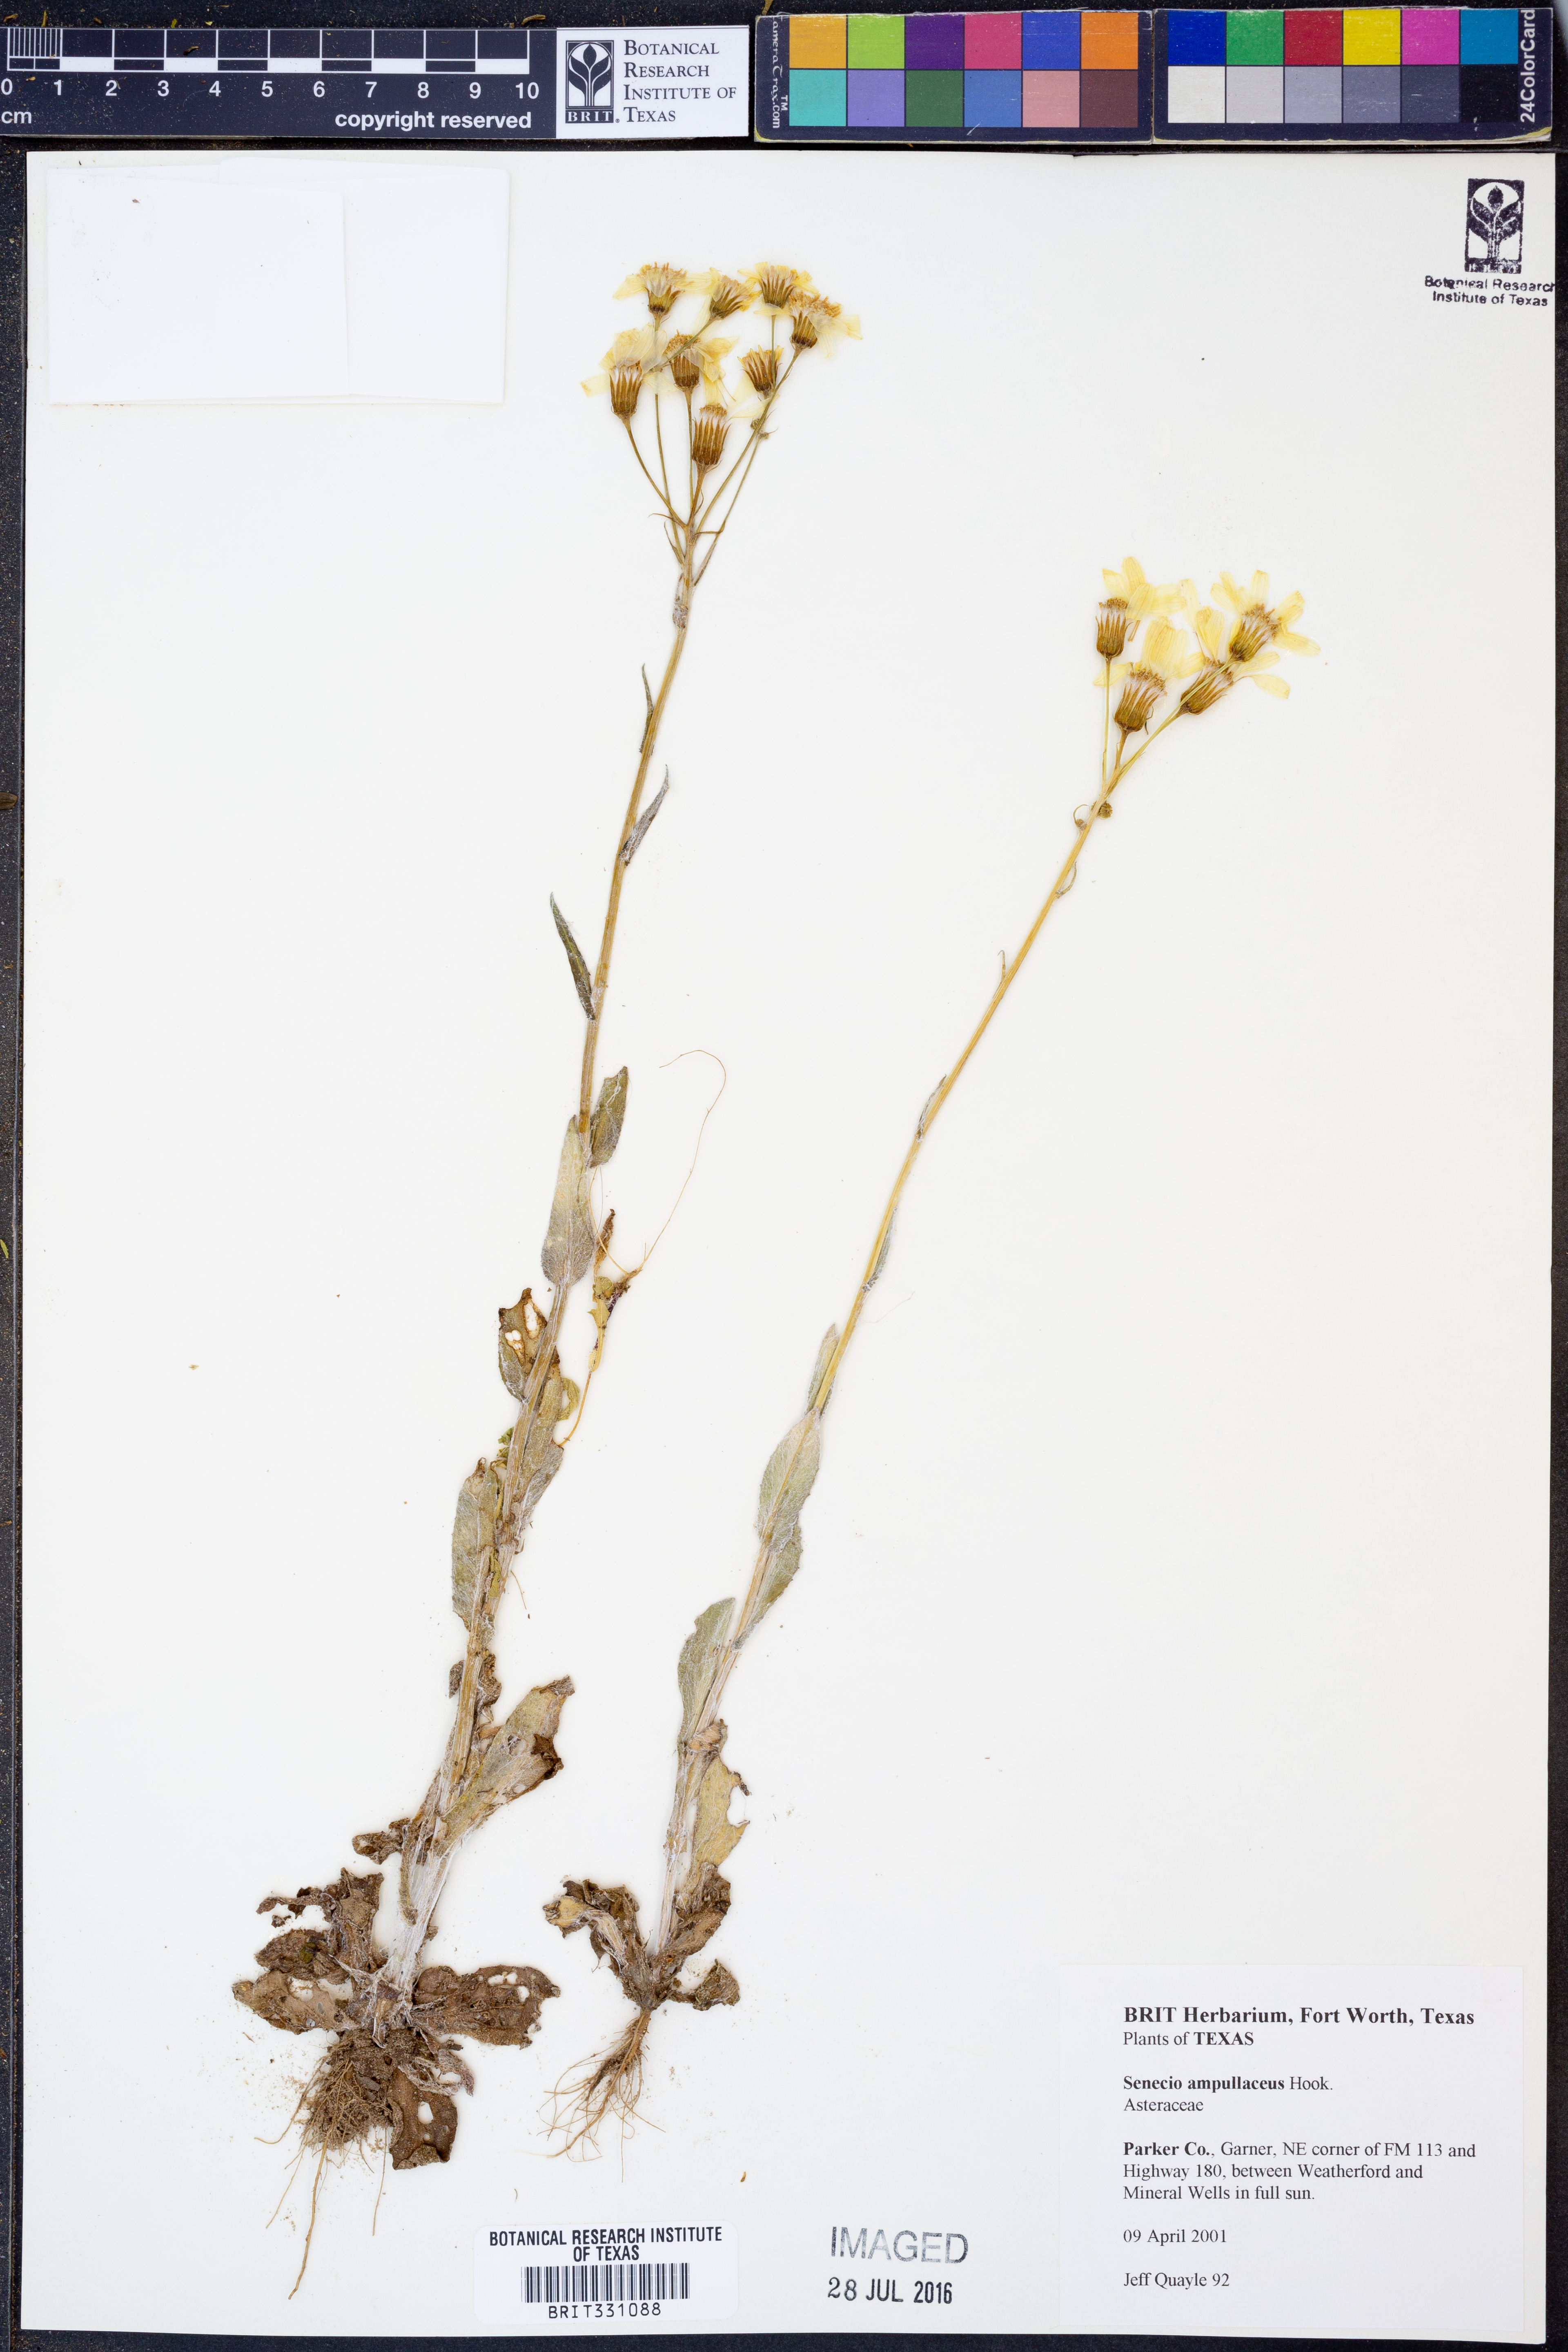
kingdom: Plantae
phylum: Tracheophyta
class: Magnoliopsida
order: Asterales
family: Asteraceae
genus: Senecio
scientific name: Senecio ampullaceus
